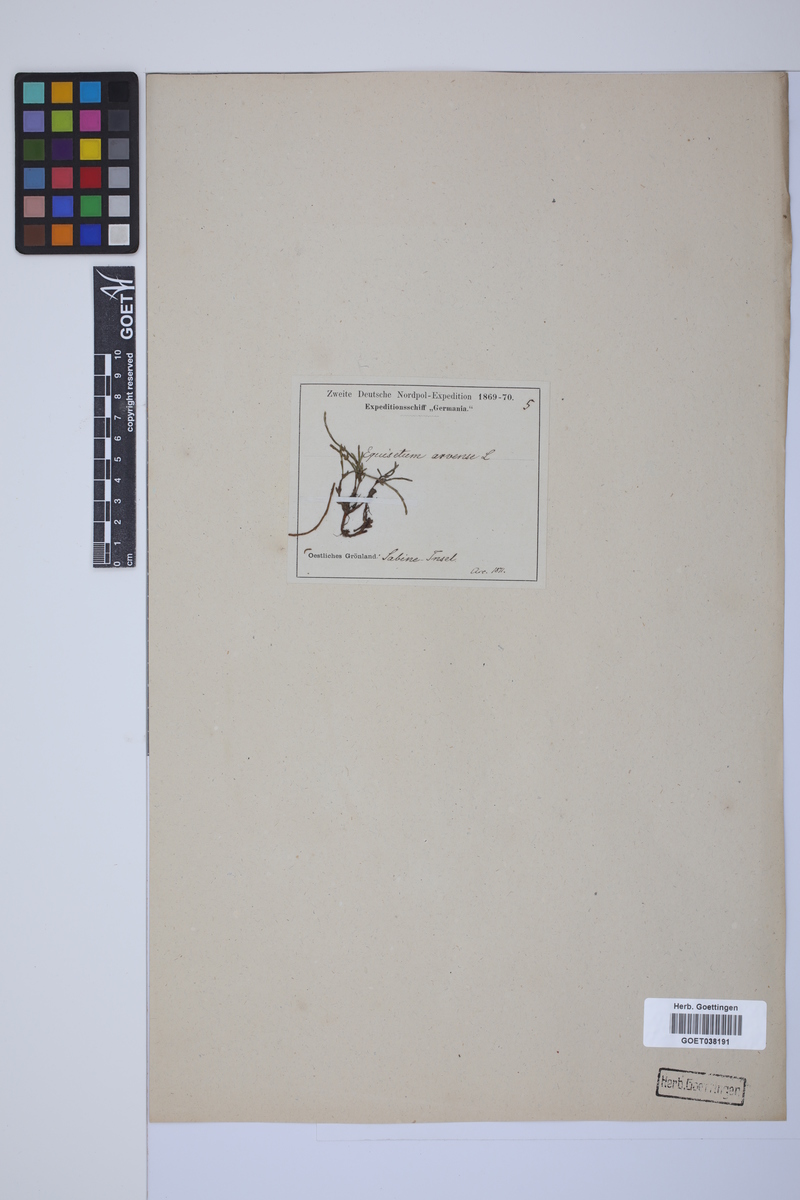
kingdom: Plantae
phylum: Tracheophyta
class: Polypodiopsida
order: Equisetales
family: Equisetaceae
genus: Equisetum
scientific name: Equisetum arvense
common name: Field horsetail
